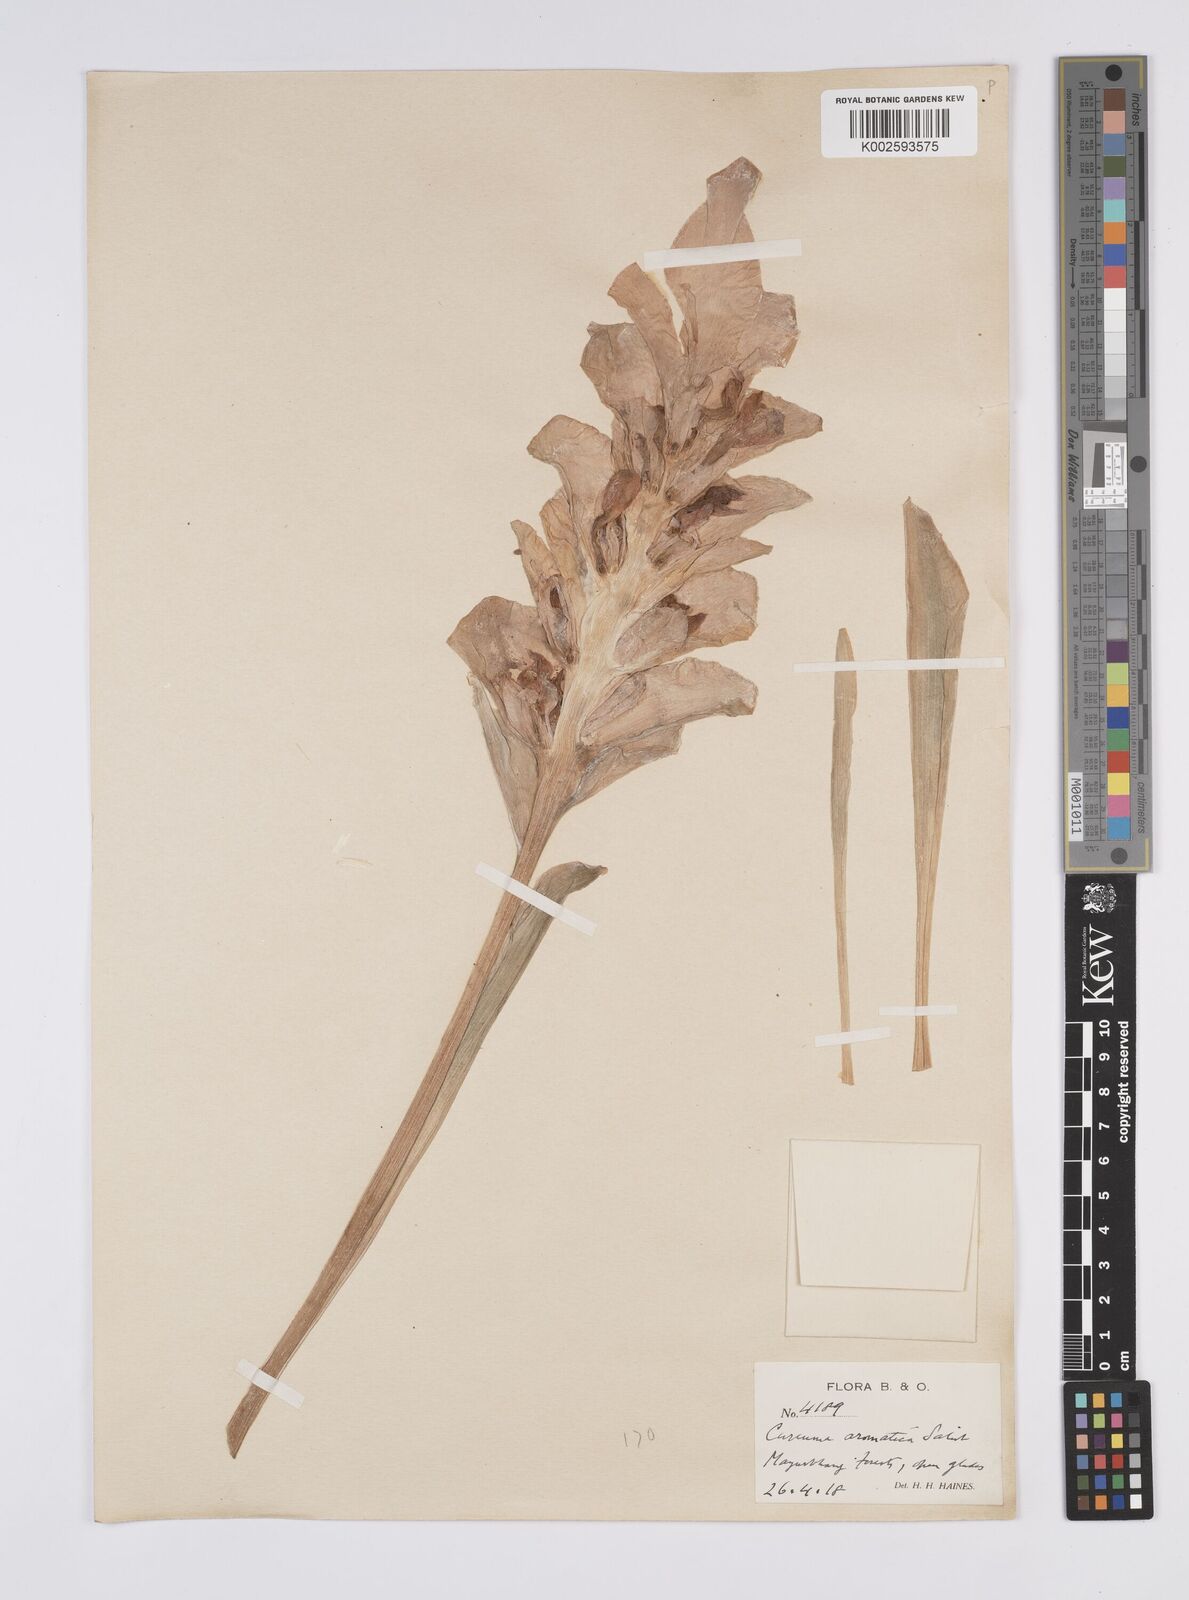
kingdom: Plantae
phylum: Tracheophyta
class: Liliopsida
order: Zingiberales
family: Zingiberaceae
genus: Curcuma
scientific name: Curcuma aromatica
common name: Wild turmeric
